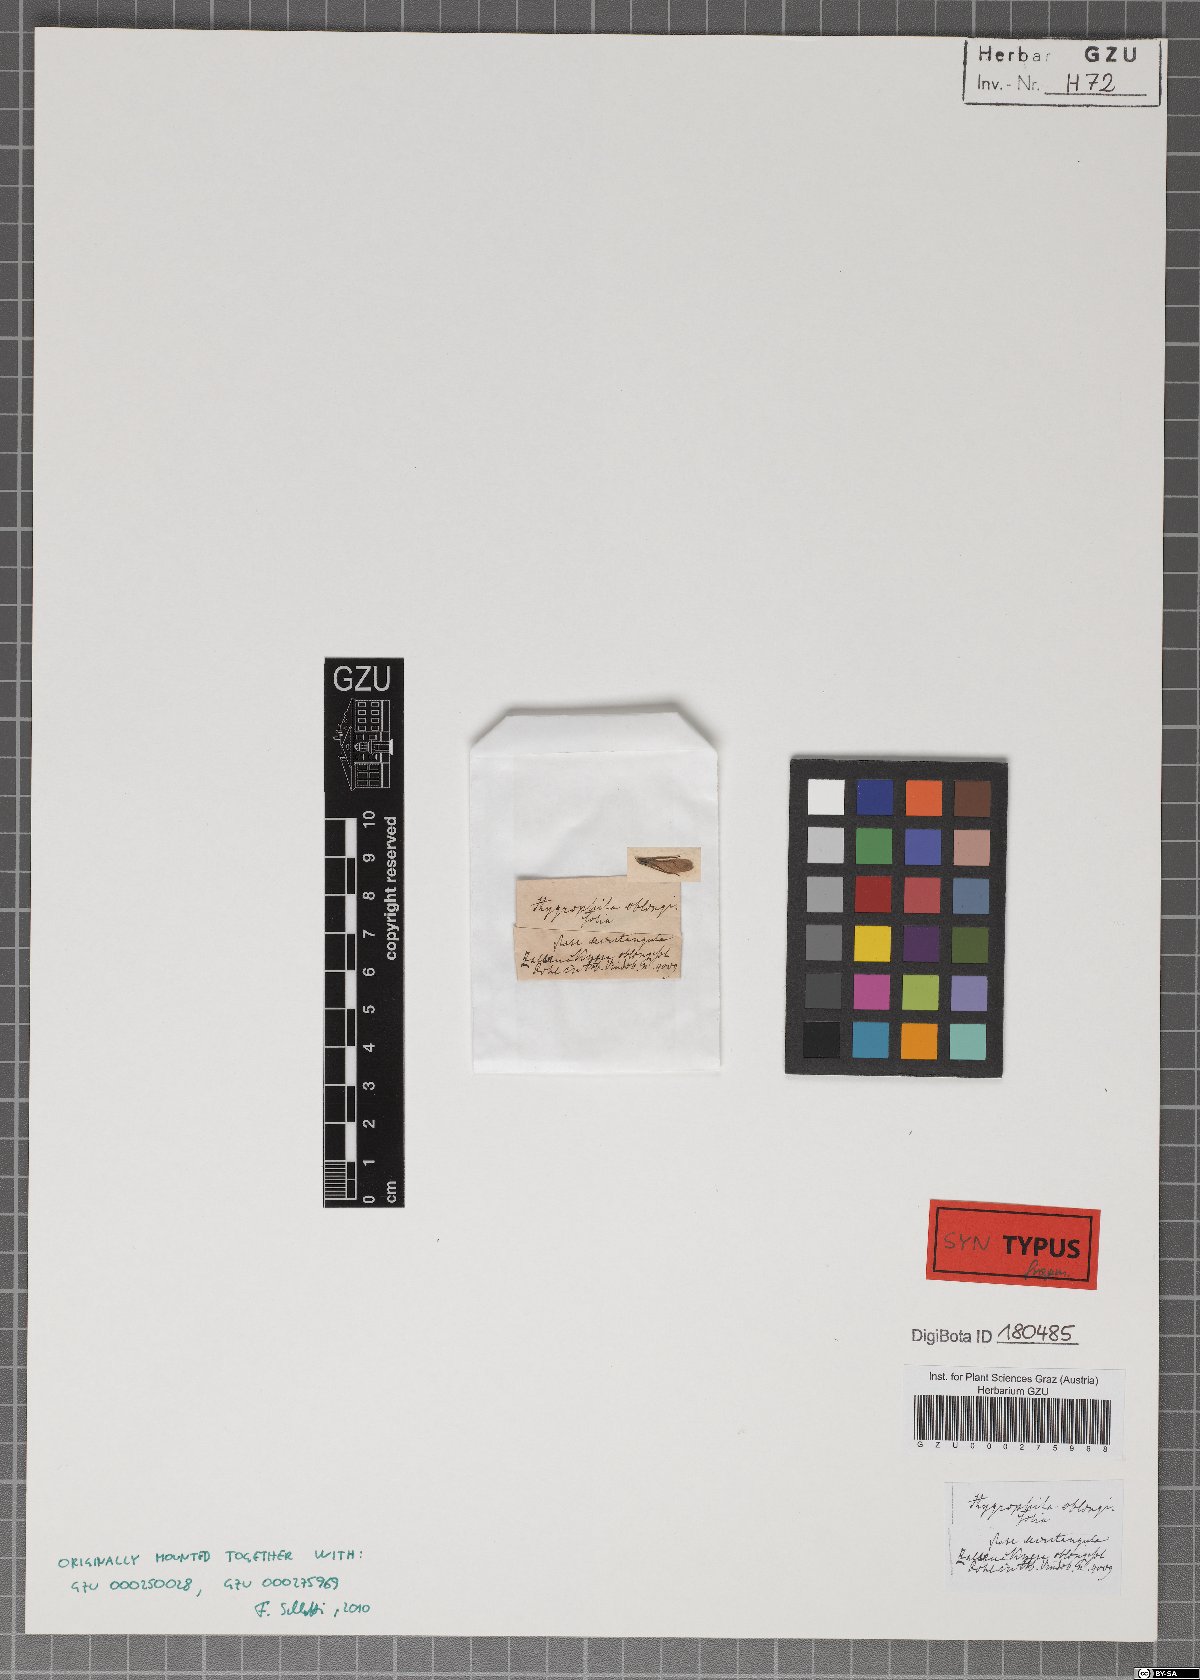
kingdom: Plantae
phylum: Tracheophyta
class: Magnoliopsida
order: Lamiales
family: Acanthaceae
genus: Hygrophila
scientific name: Hygrophila acutangula
